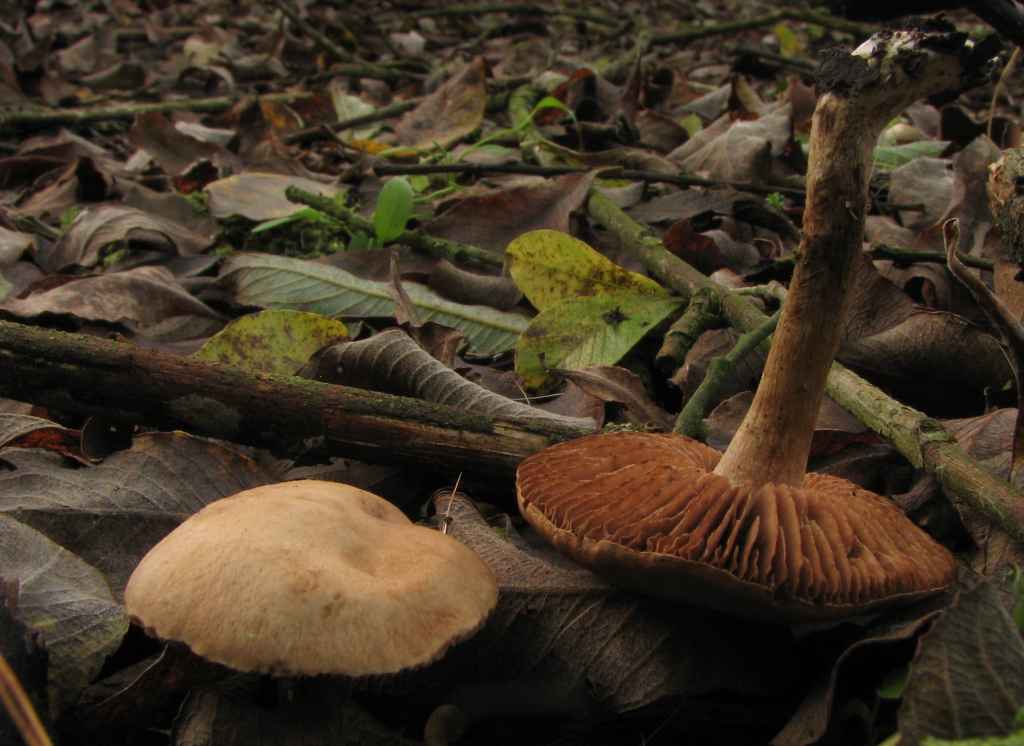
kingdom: Fungi
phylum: Basidiomycota
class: Agaricomycetes
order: Agaricales
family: Hymenogastraceae
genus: Hebeloma
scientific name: Hebeloma nauseosum
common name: storsporet tåreblad
